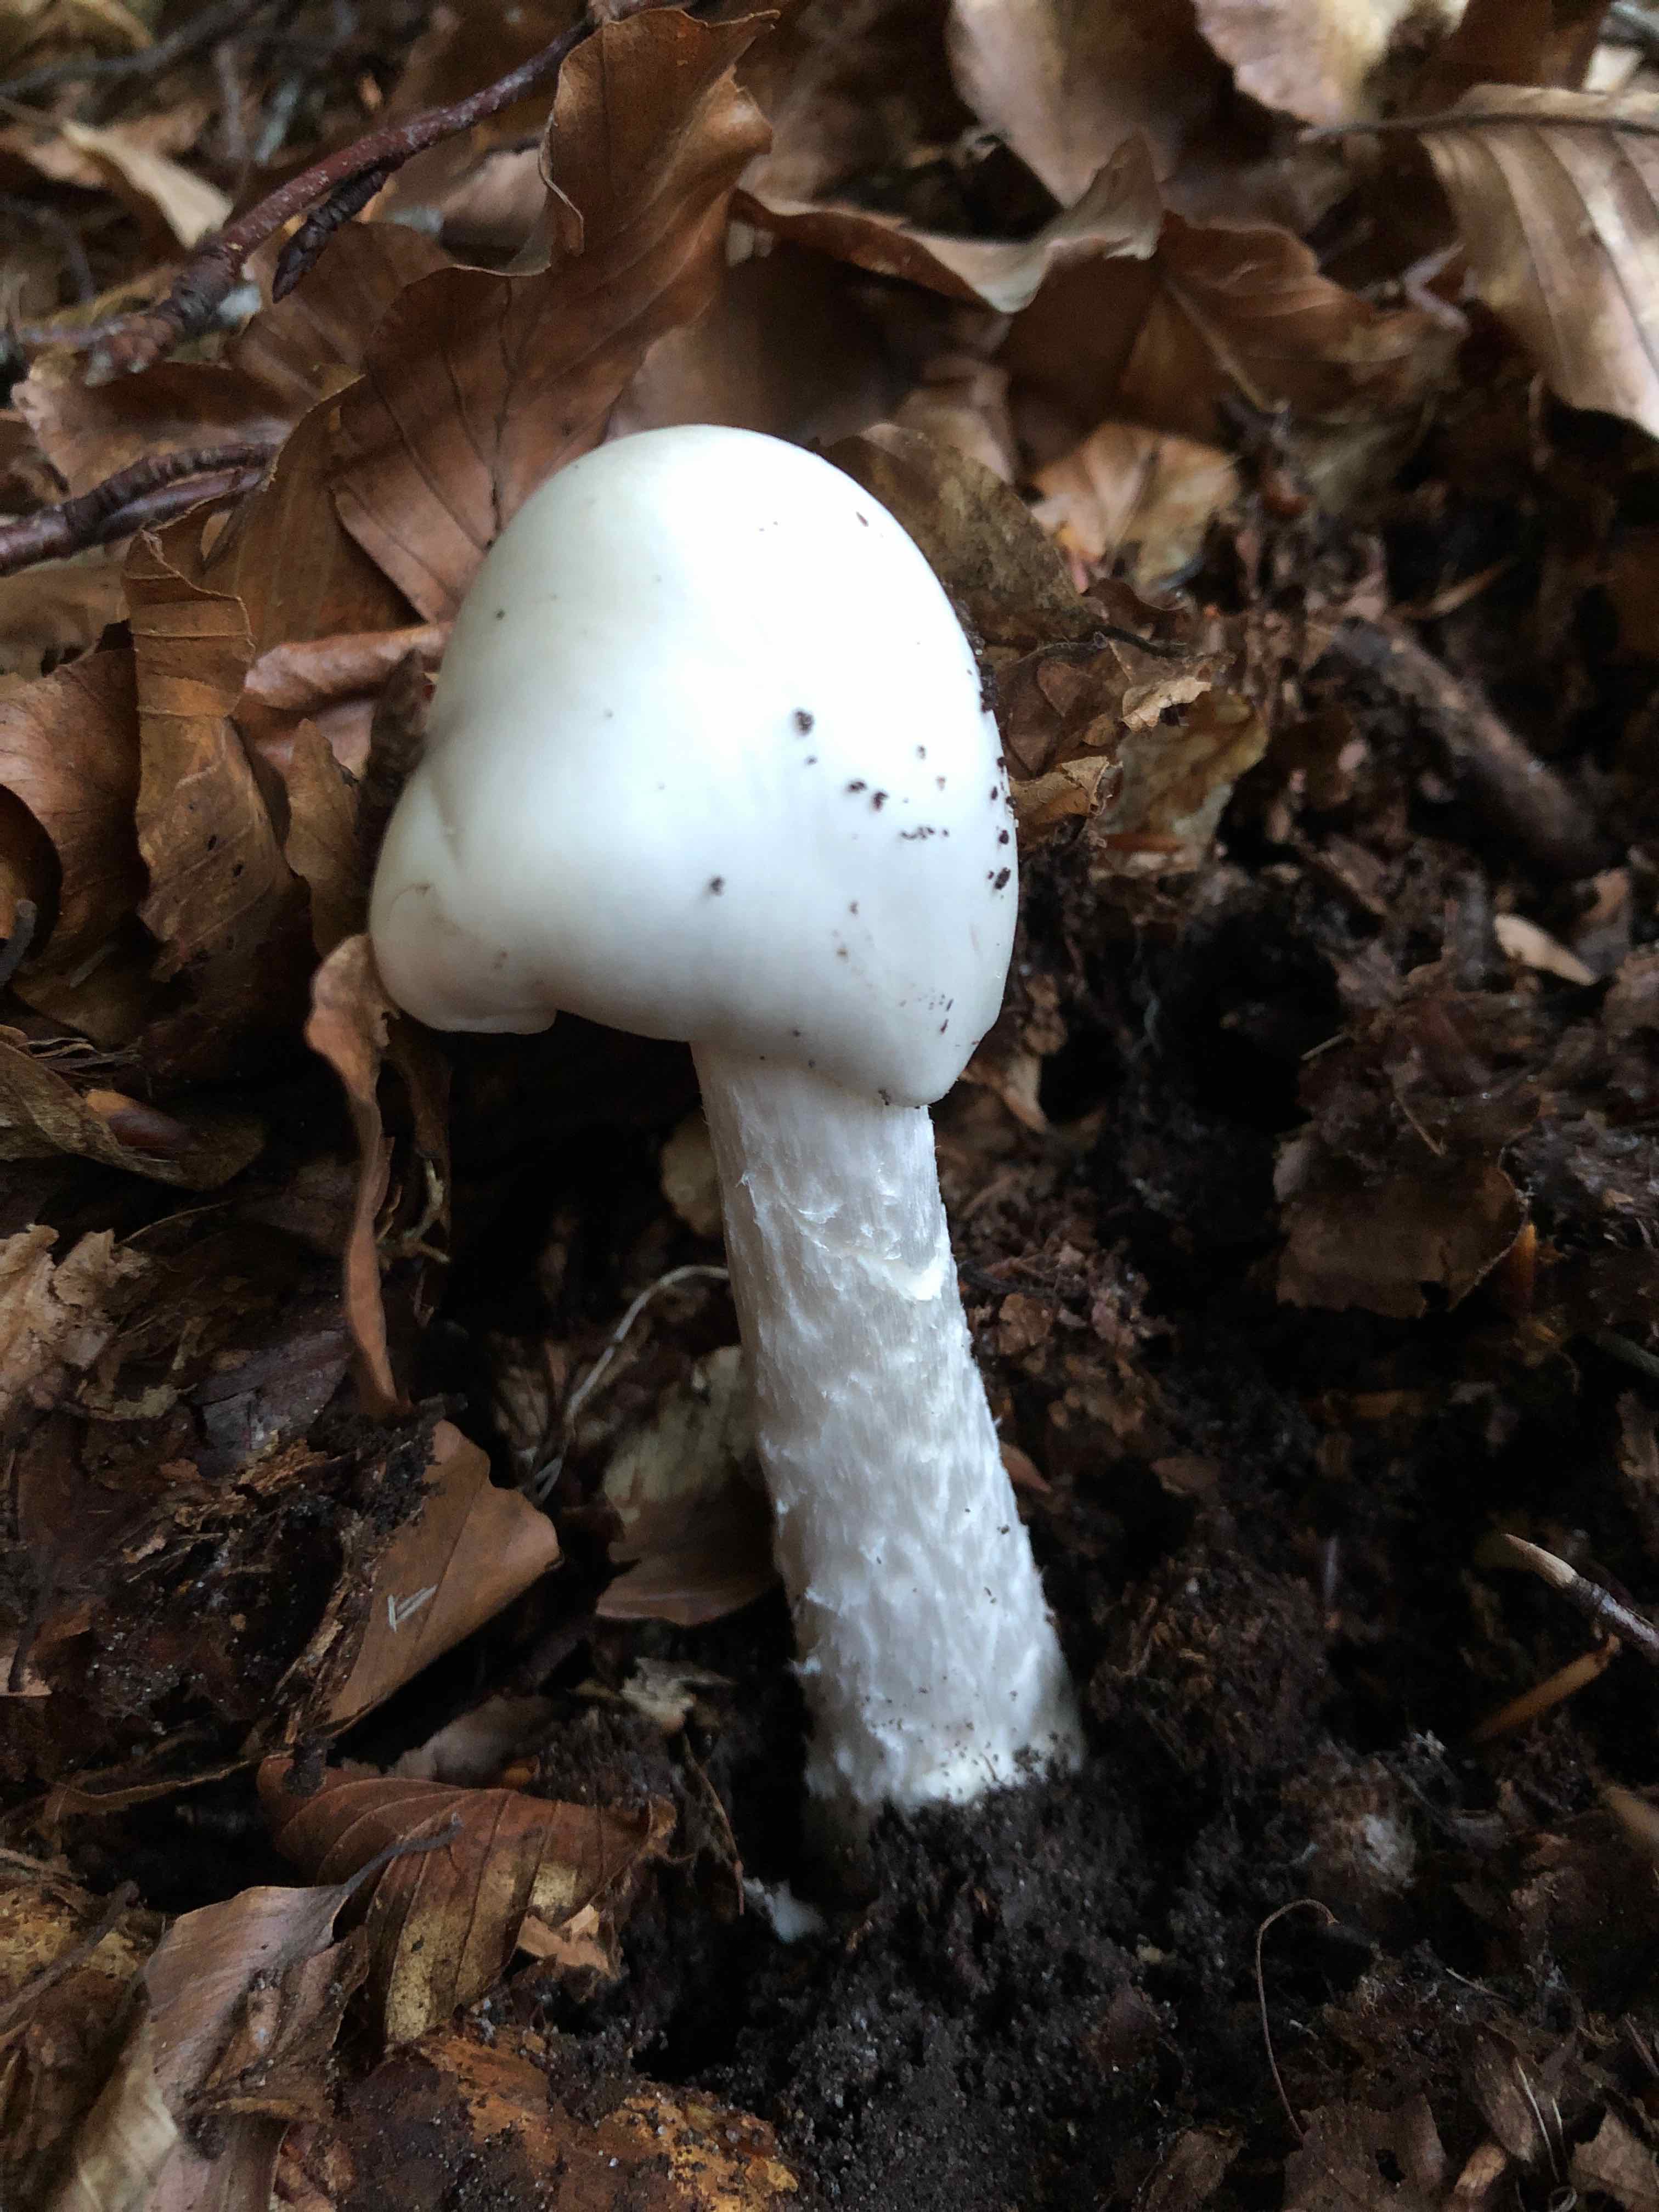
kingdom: Fungi
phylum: Basidiomycota
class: Agaricomycetes
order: Agaricales
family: Amanitaceae
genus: Amanita
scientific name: Amanita virosa
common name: snehvid fluesvamp
